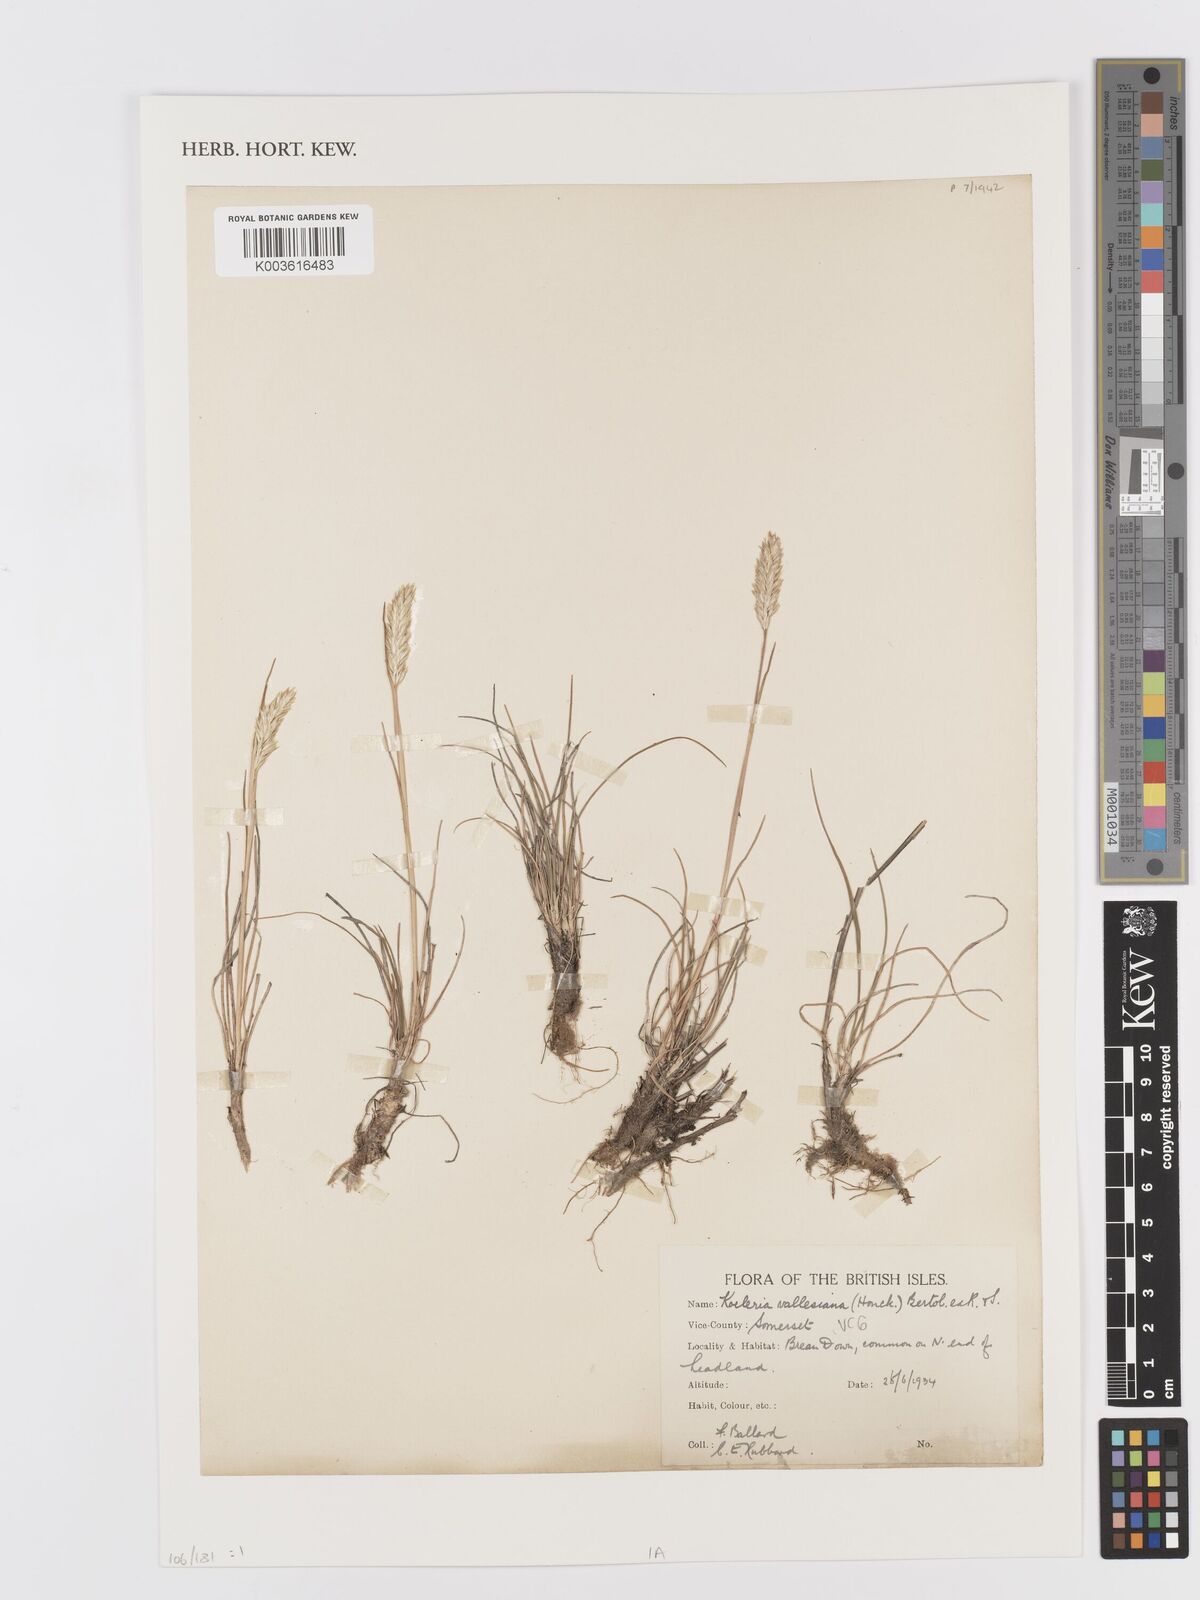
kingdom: Plantae
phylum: Tracheophyta
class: Liliopsida
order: Poales
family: Poaceae
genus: Koeleria
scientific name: Koeleria vallesiana
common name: Somerset hair-grass
